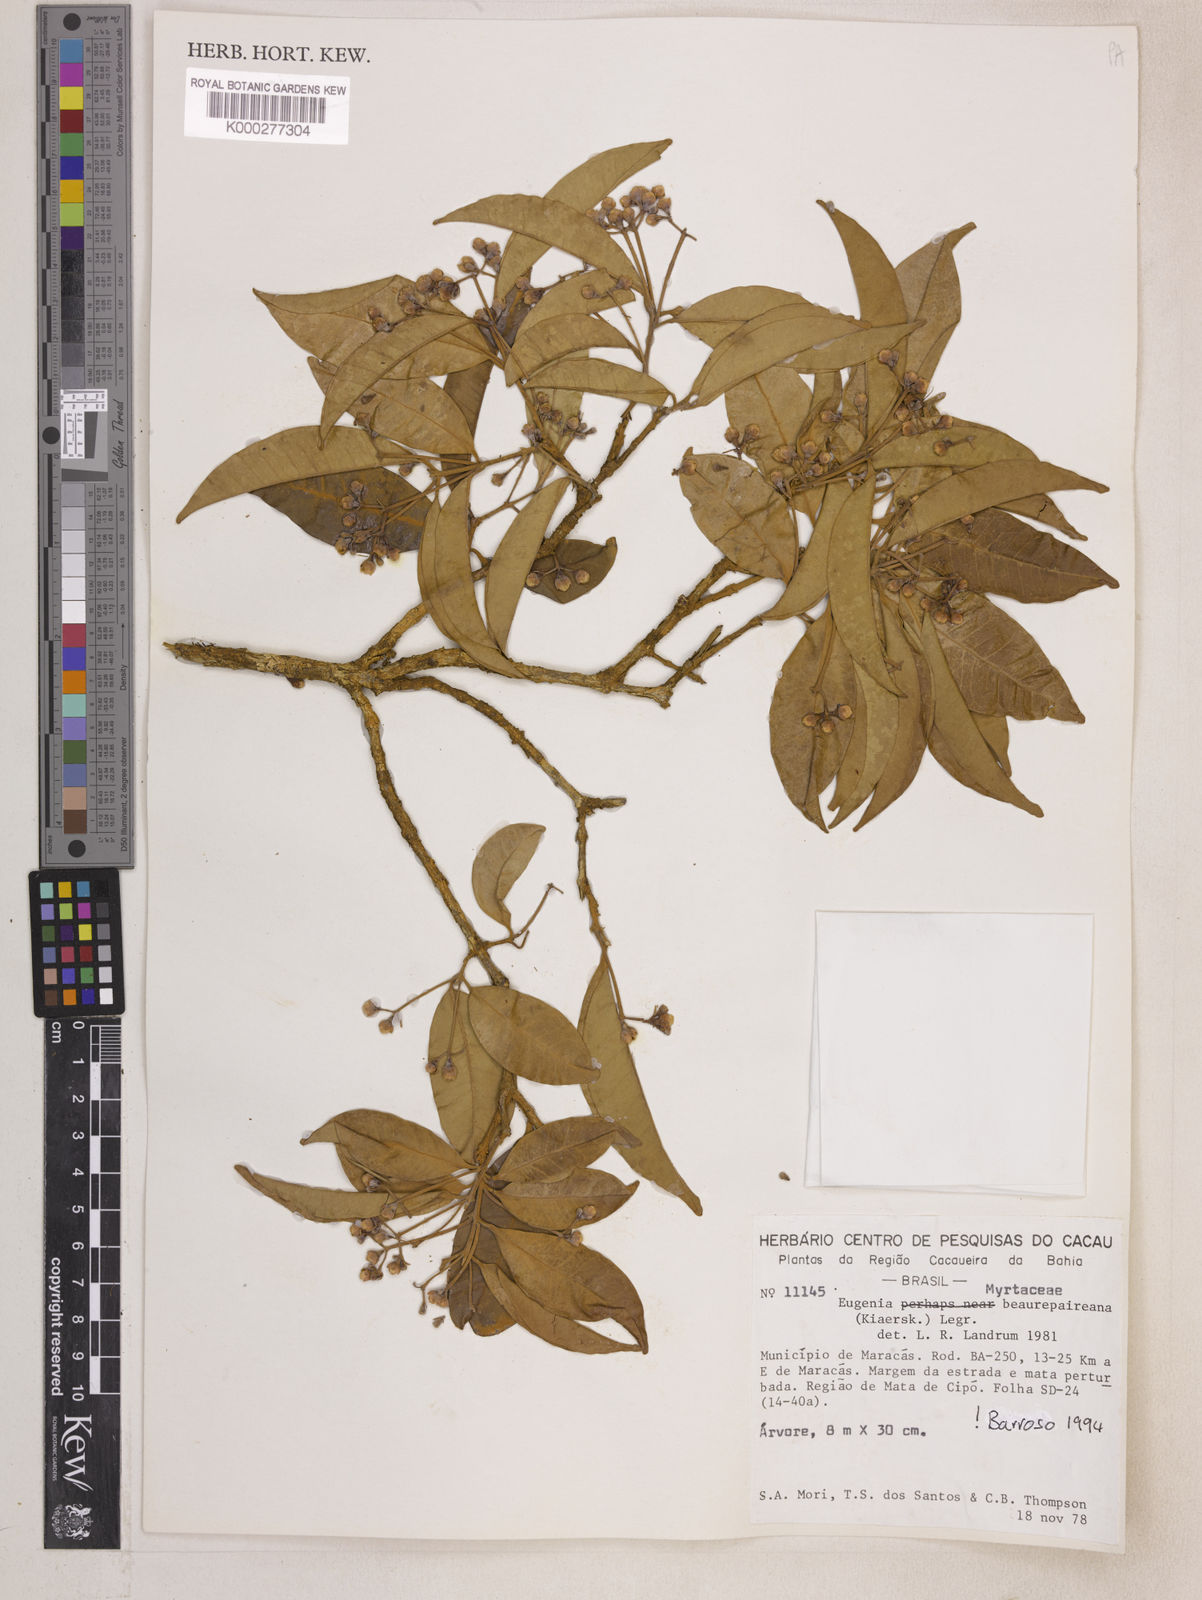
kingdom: Plantae
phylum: Tracheophyta
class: Magnoliopsida
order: Myrtales
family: Myrtaceae
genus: Eugenia
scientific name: Eugenia ternatifolia
